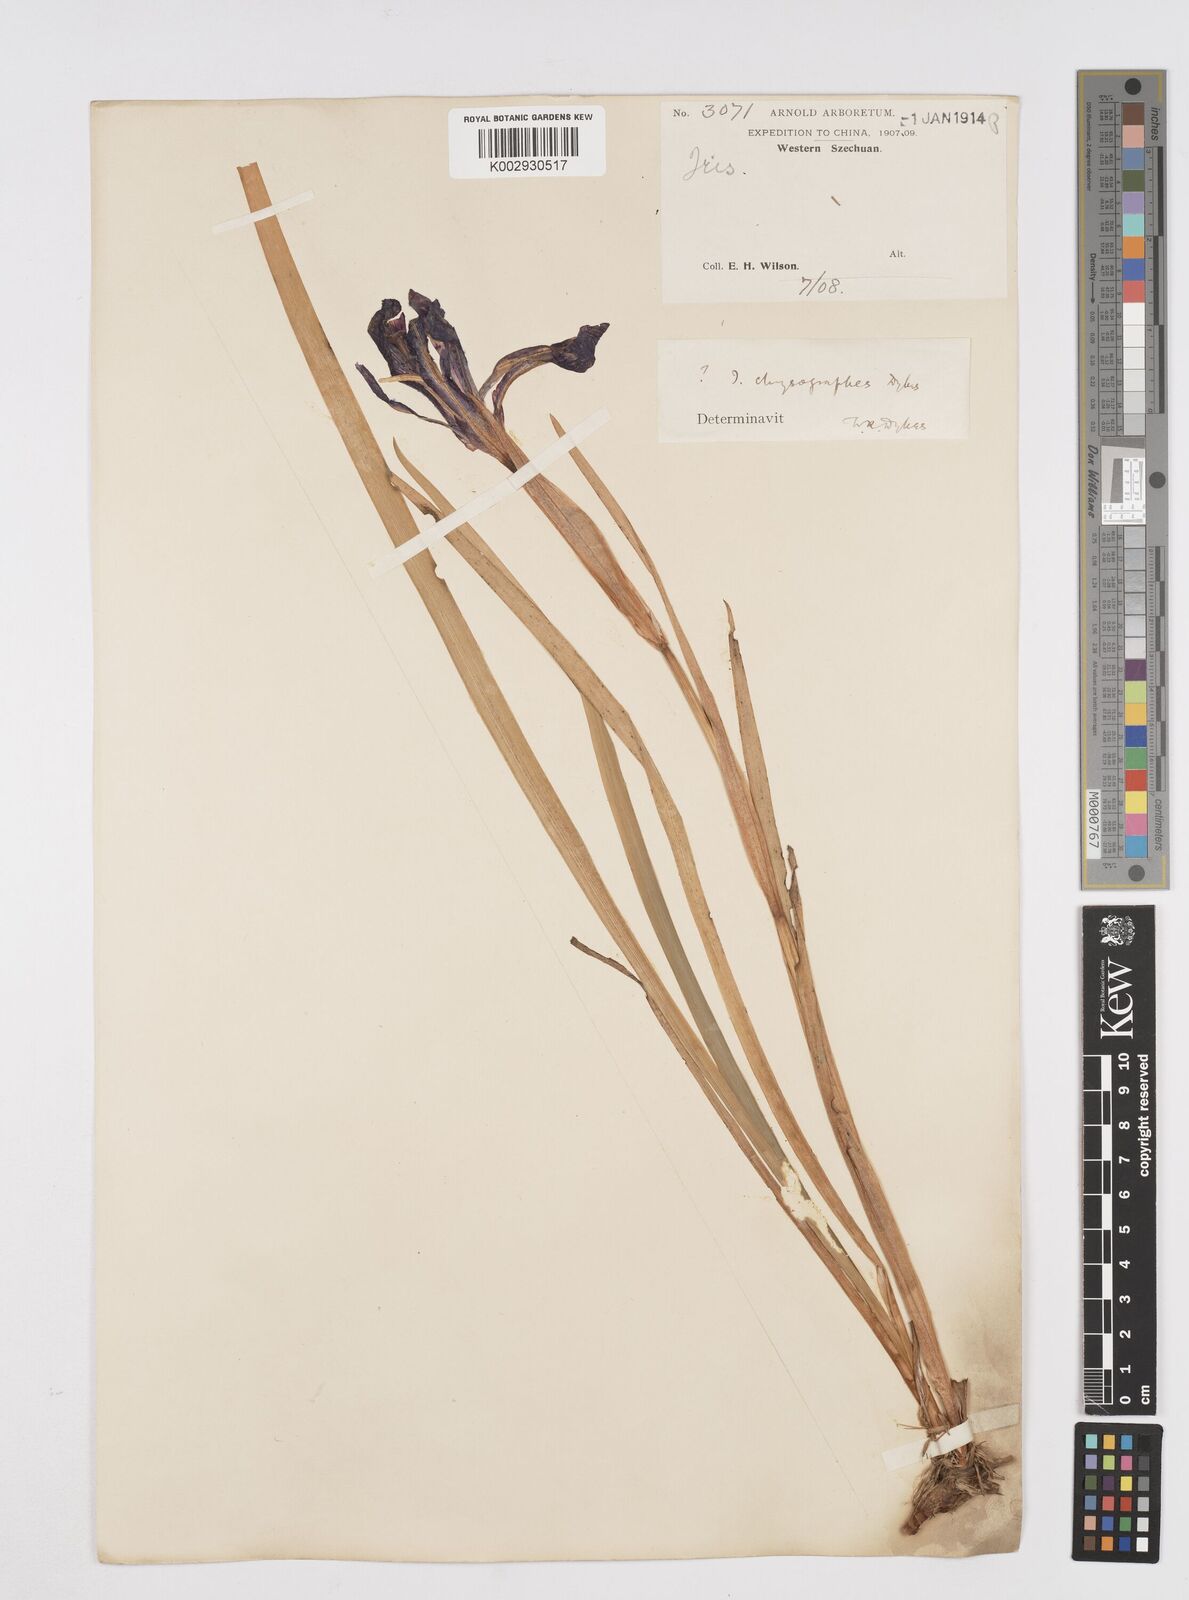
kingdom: Plantae
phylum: Tracheophyta
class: Liliopsida
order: Asparagales
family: Iridaceae
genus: Iris
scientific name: Iris chrysographes
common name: Gold-vein iris
